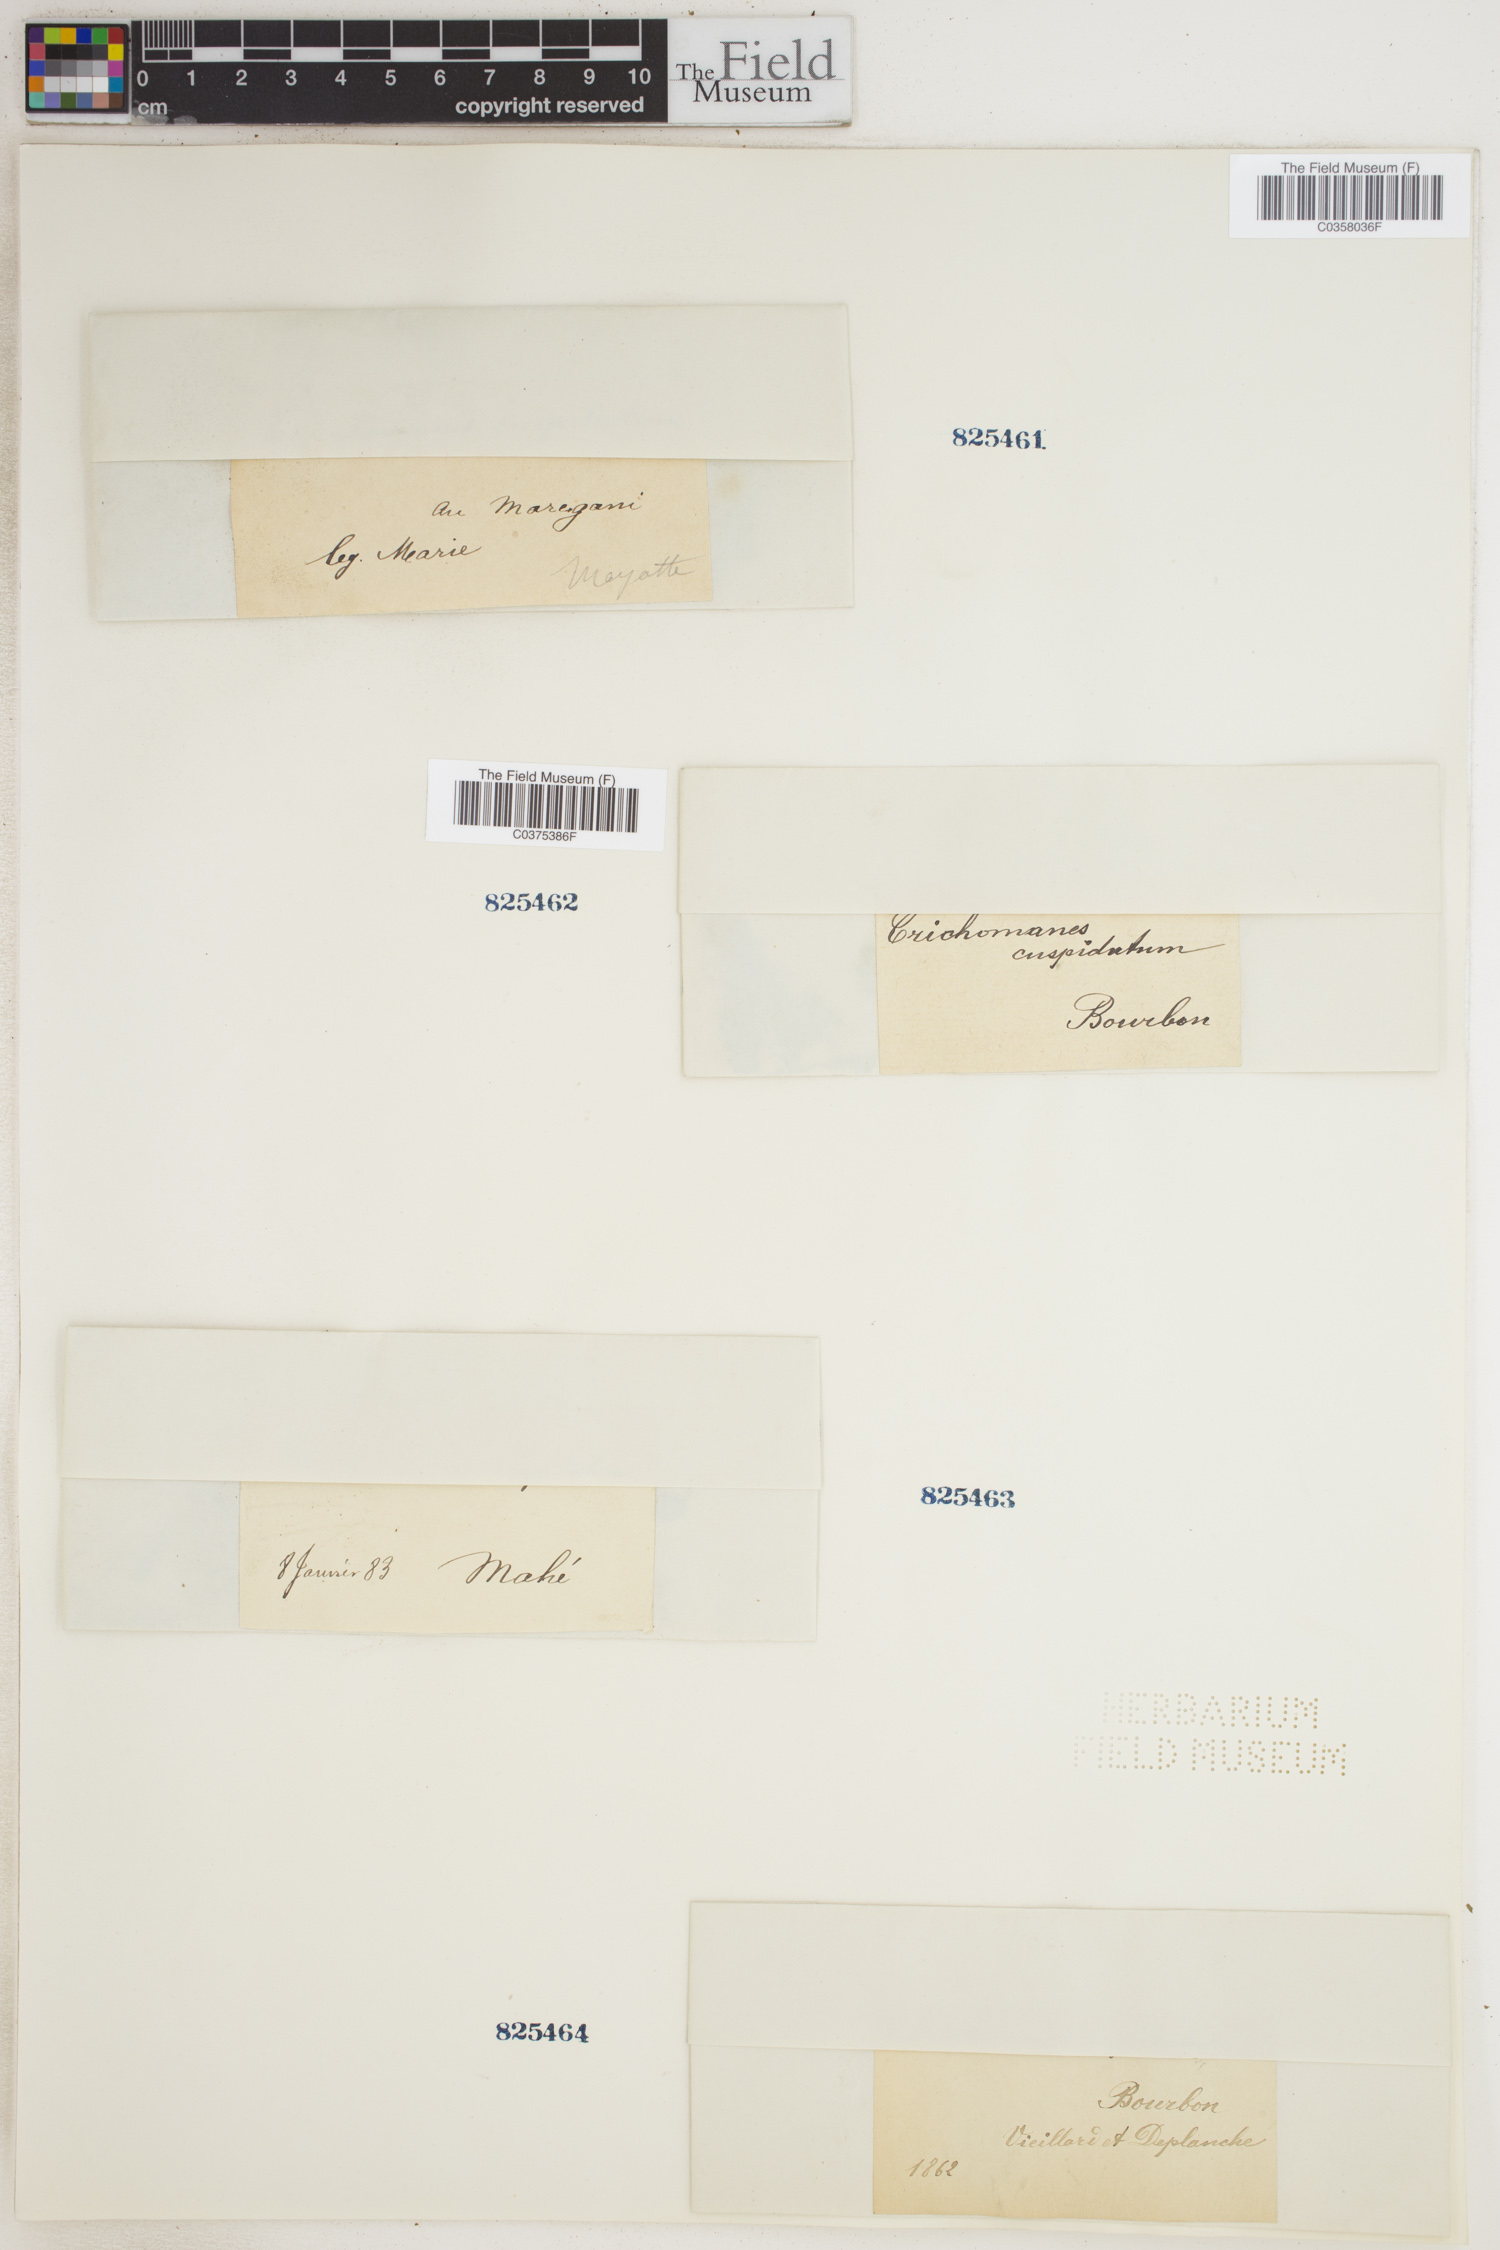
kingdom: Plantae
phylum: Tracheophyta
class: Polypodiopsida
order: Hymenophyllales
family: Hymenophyllaceae
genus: Didymoglossum
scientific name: Didymoglossum cuspidatum
